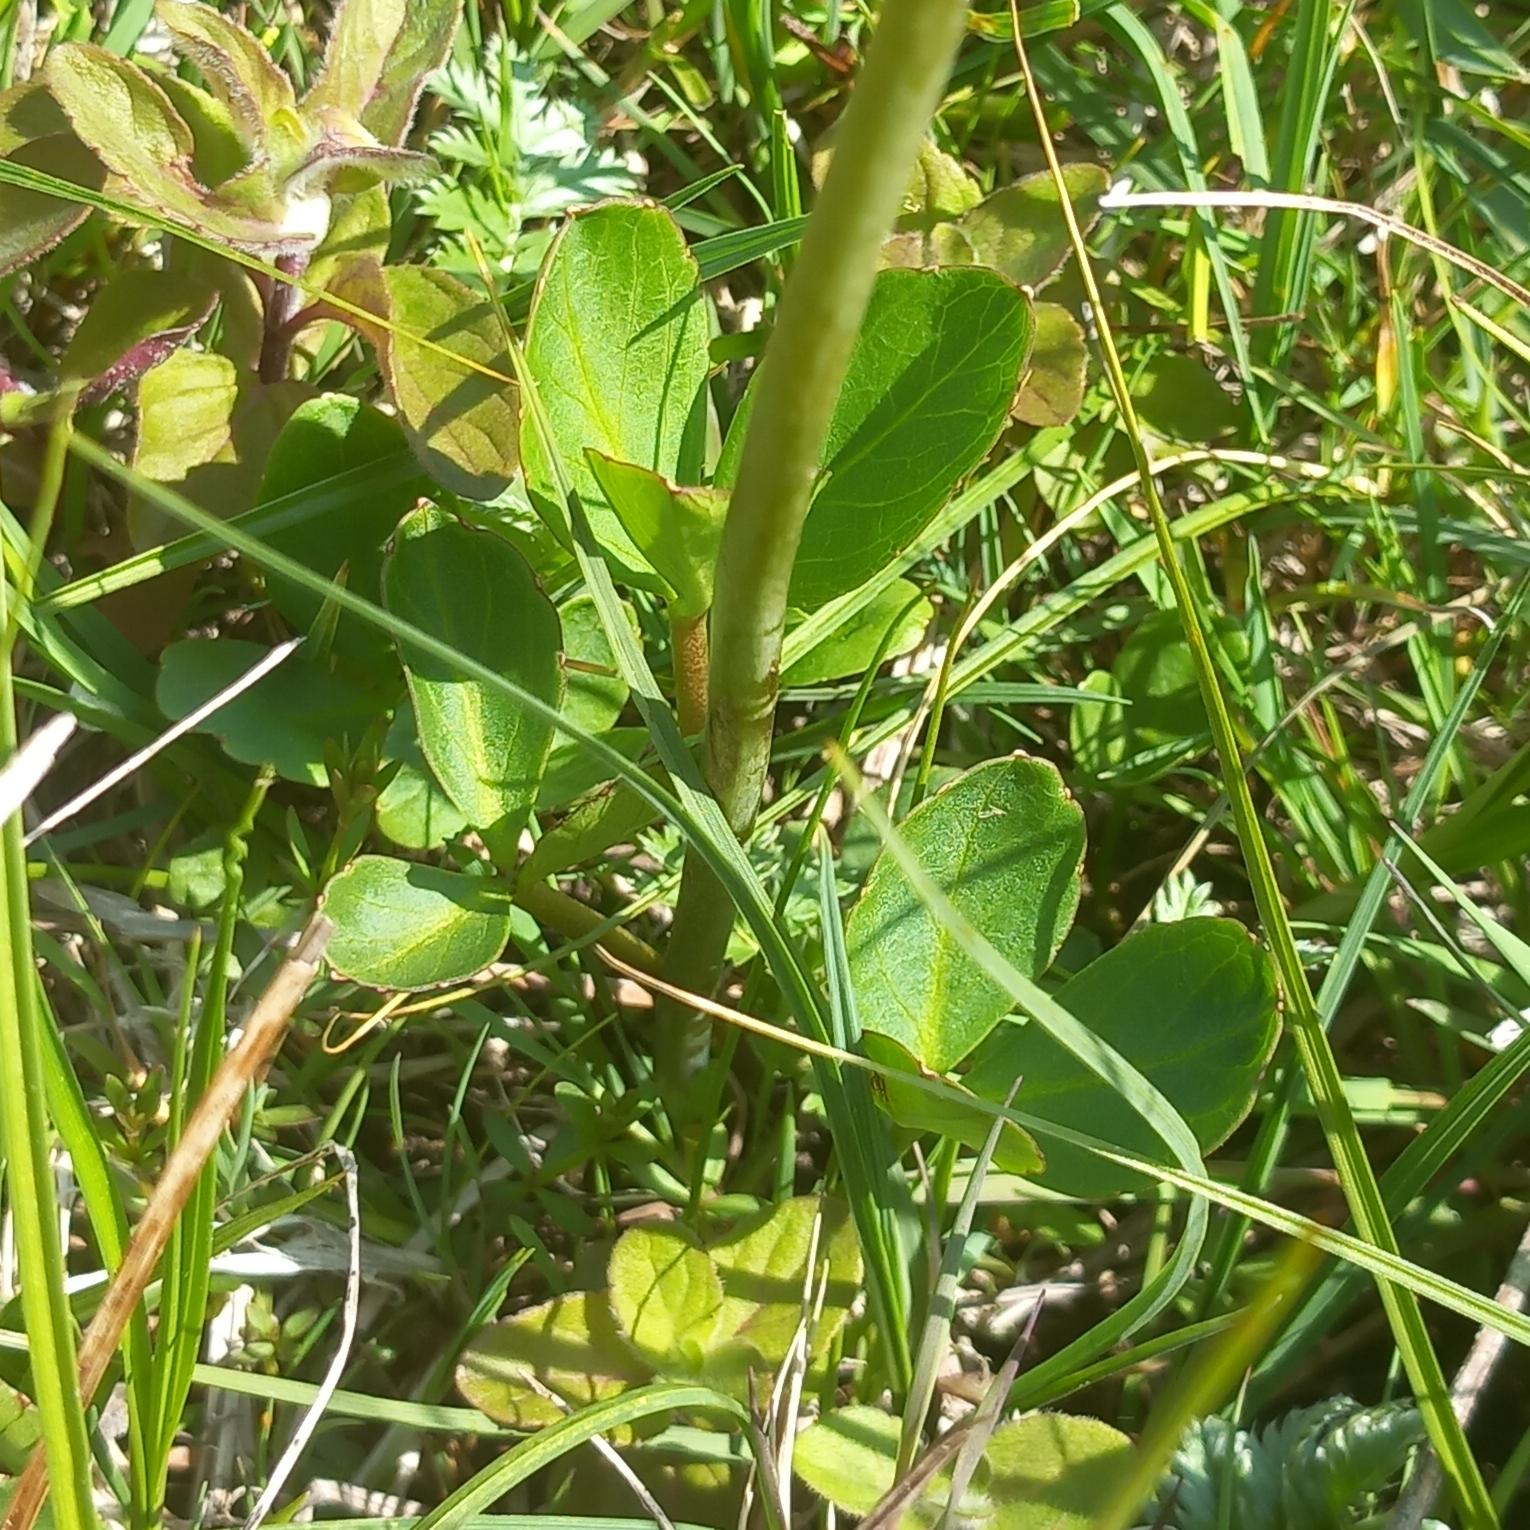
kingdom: Plantae
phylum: Tracheophyta
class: Magnoliopsida
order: Asterales
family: Menyanthaceae
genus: Menyanthes
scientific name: Menyanthes trifoliata
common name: Bukkeblad
